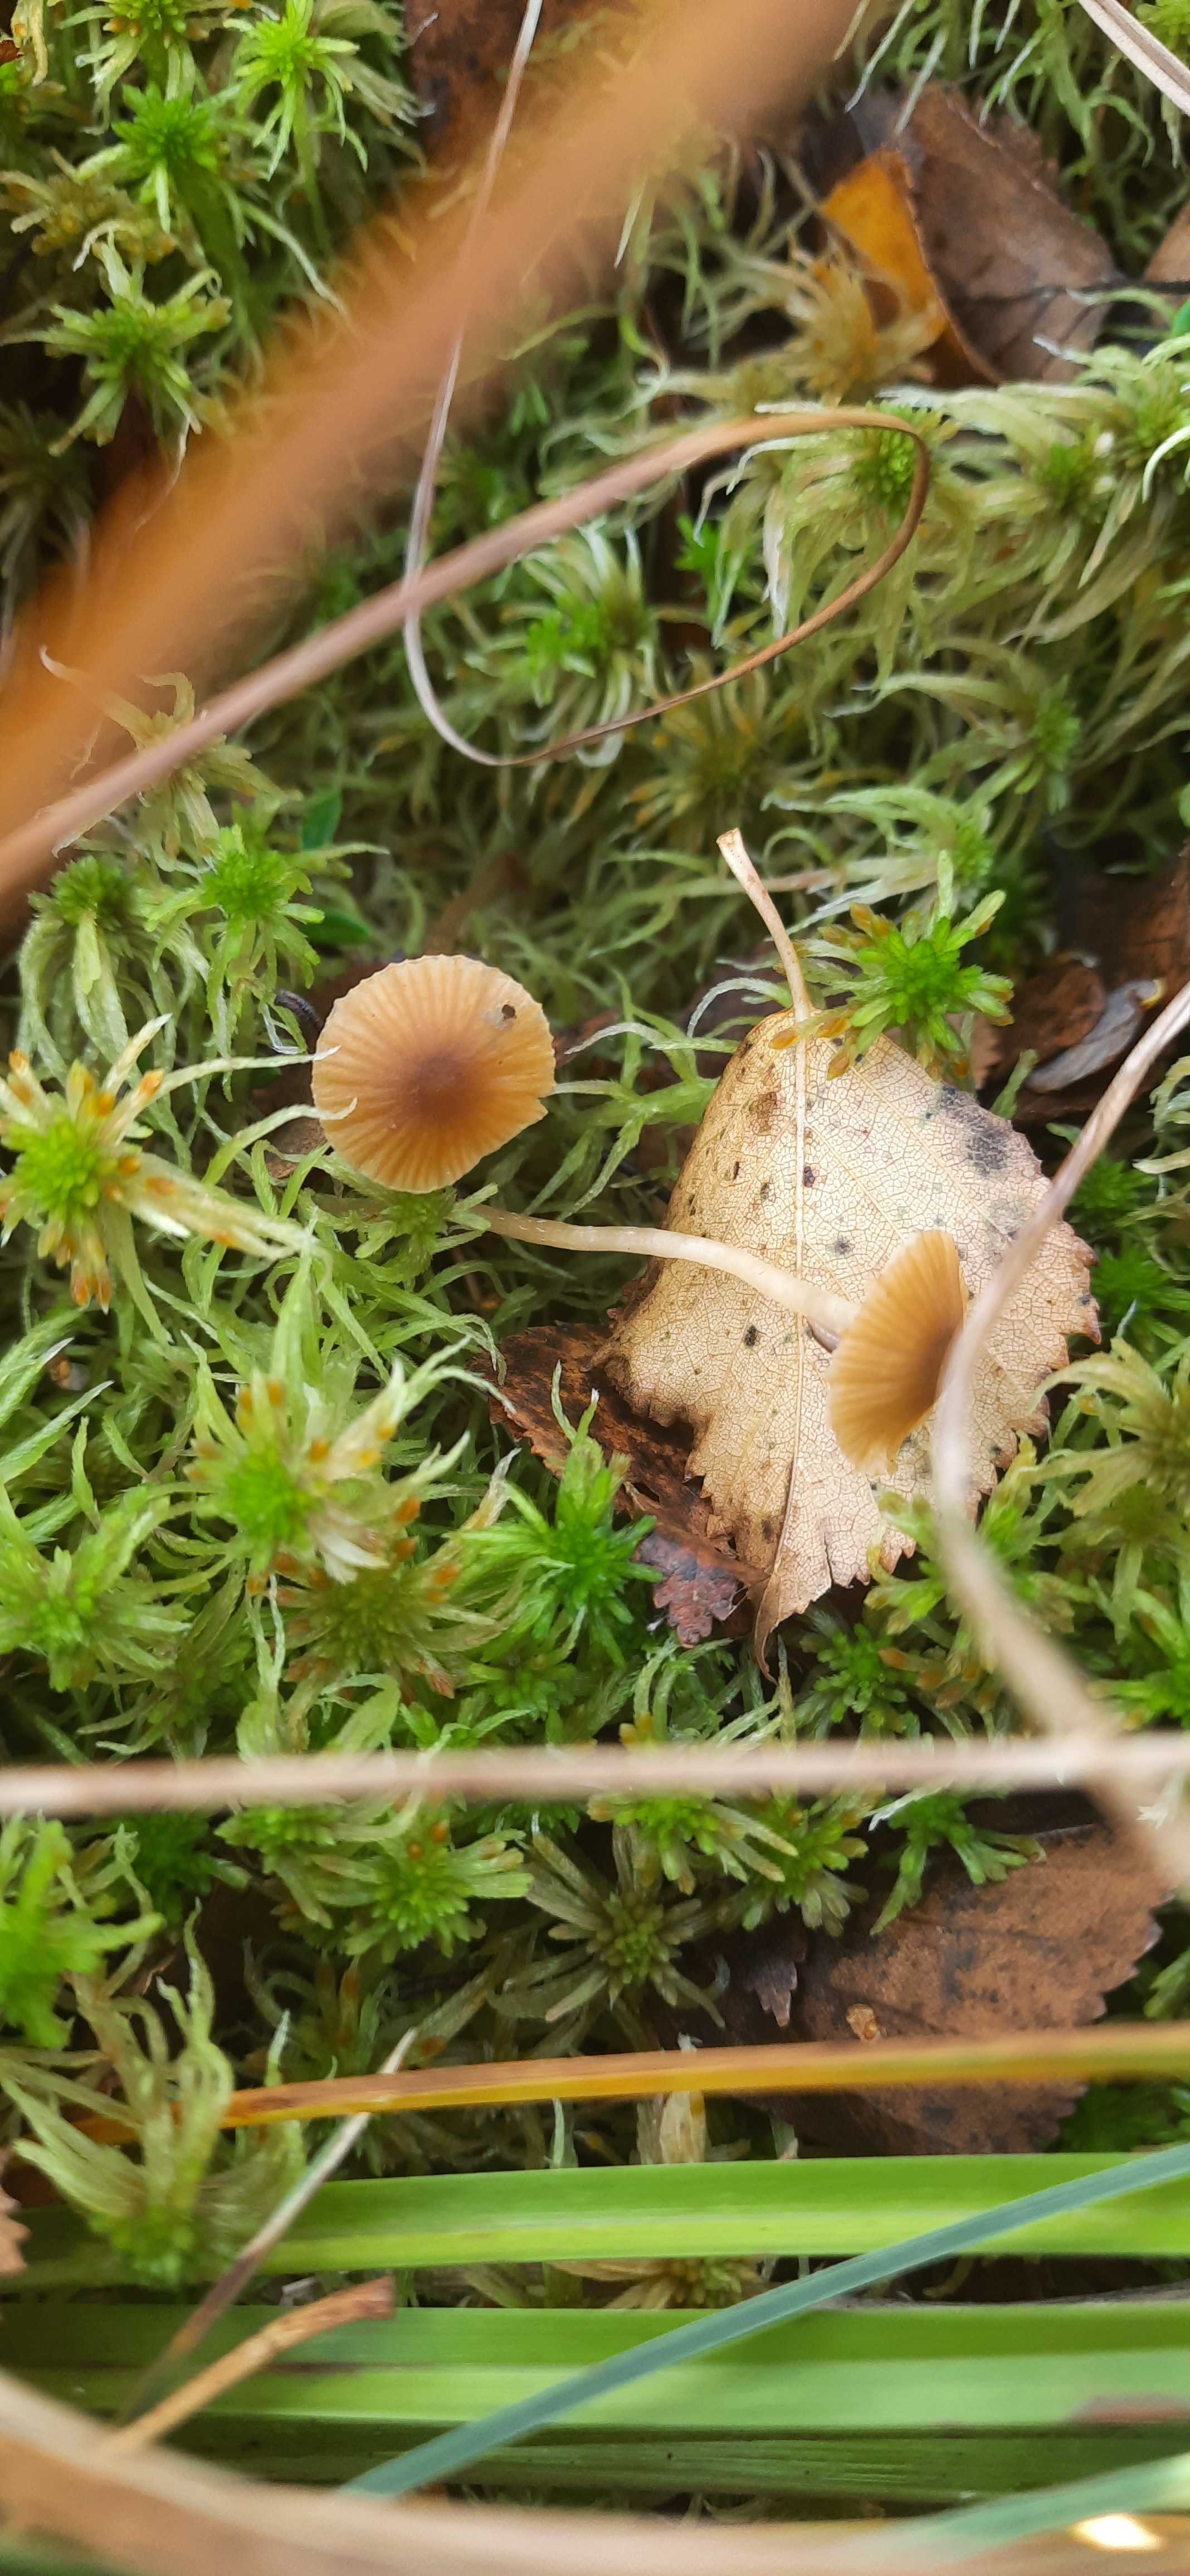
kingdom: Fungi
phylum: Basidiomycota
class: Agaricomycetes
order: Agaricales
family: Hymenogastraceae
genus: Galerina
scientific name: Galerina
